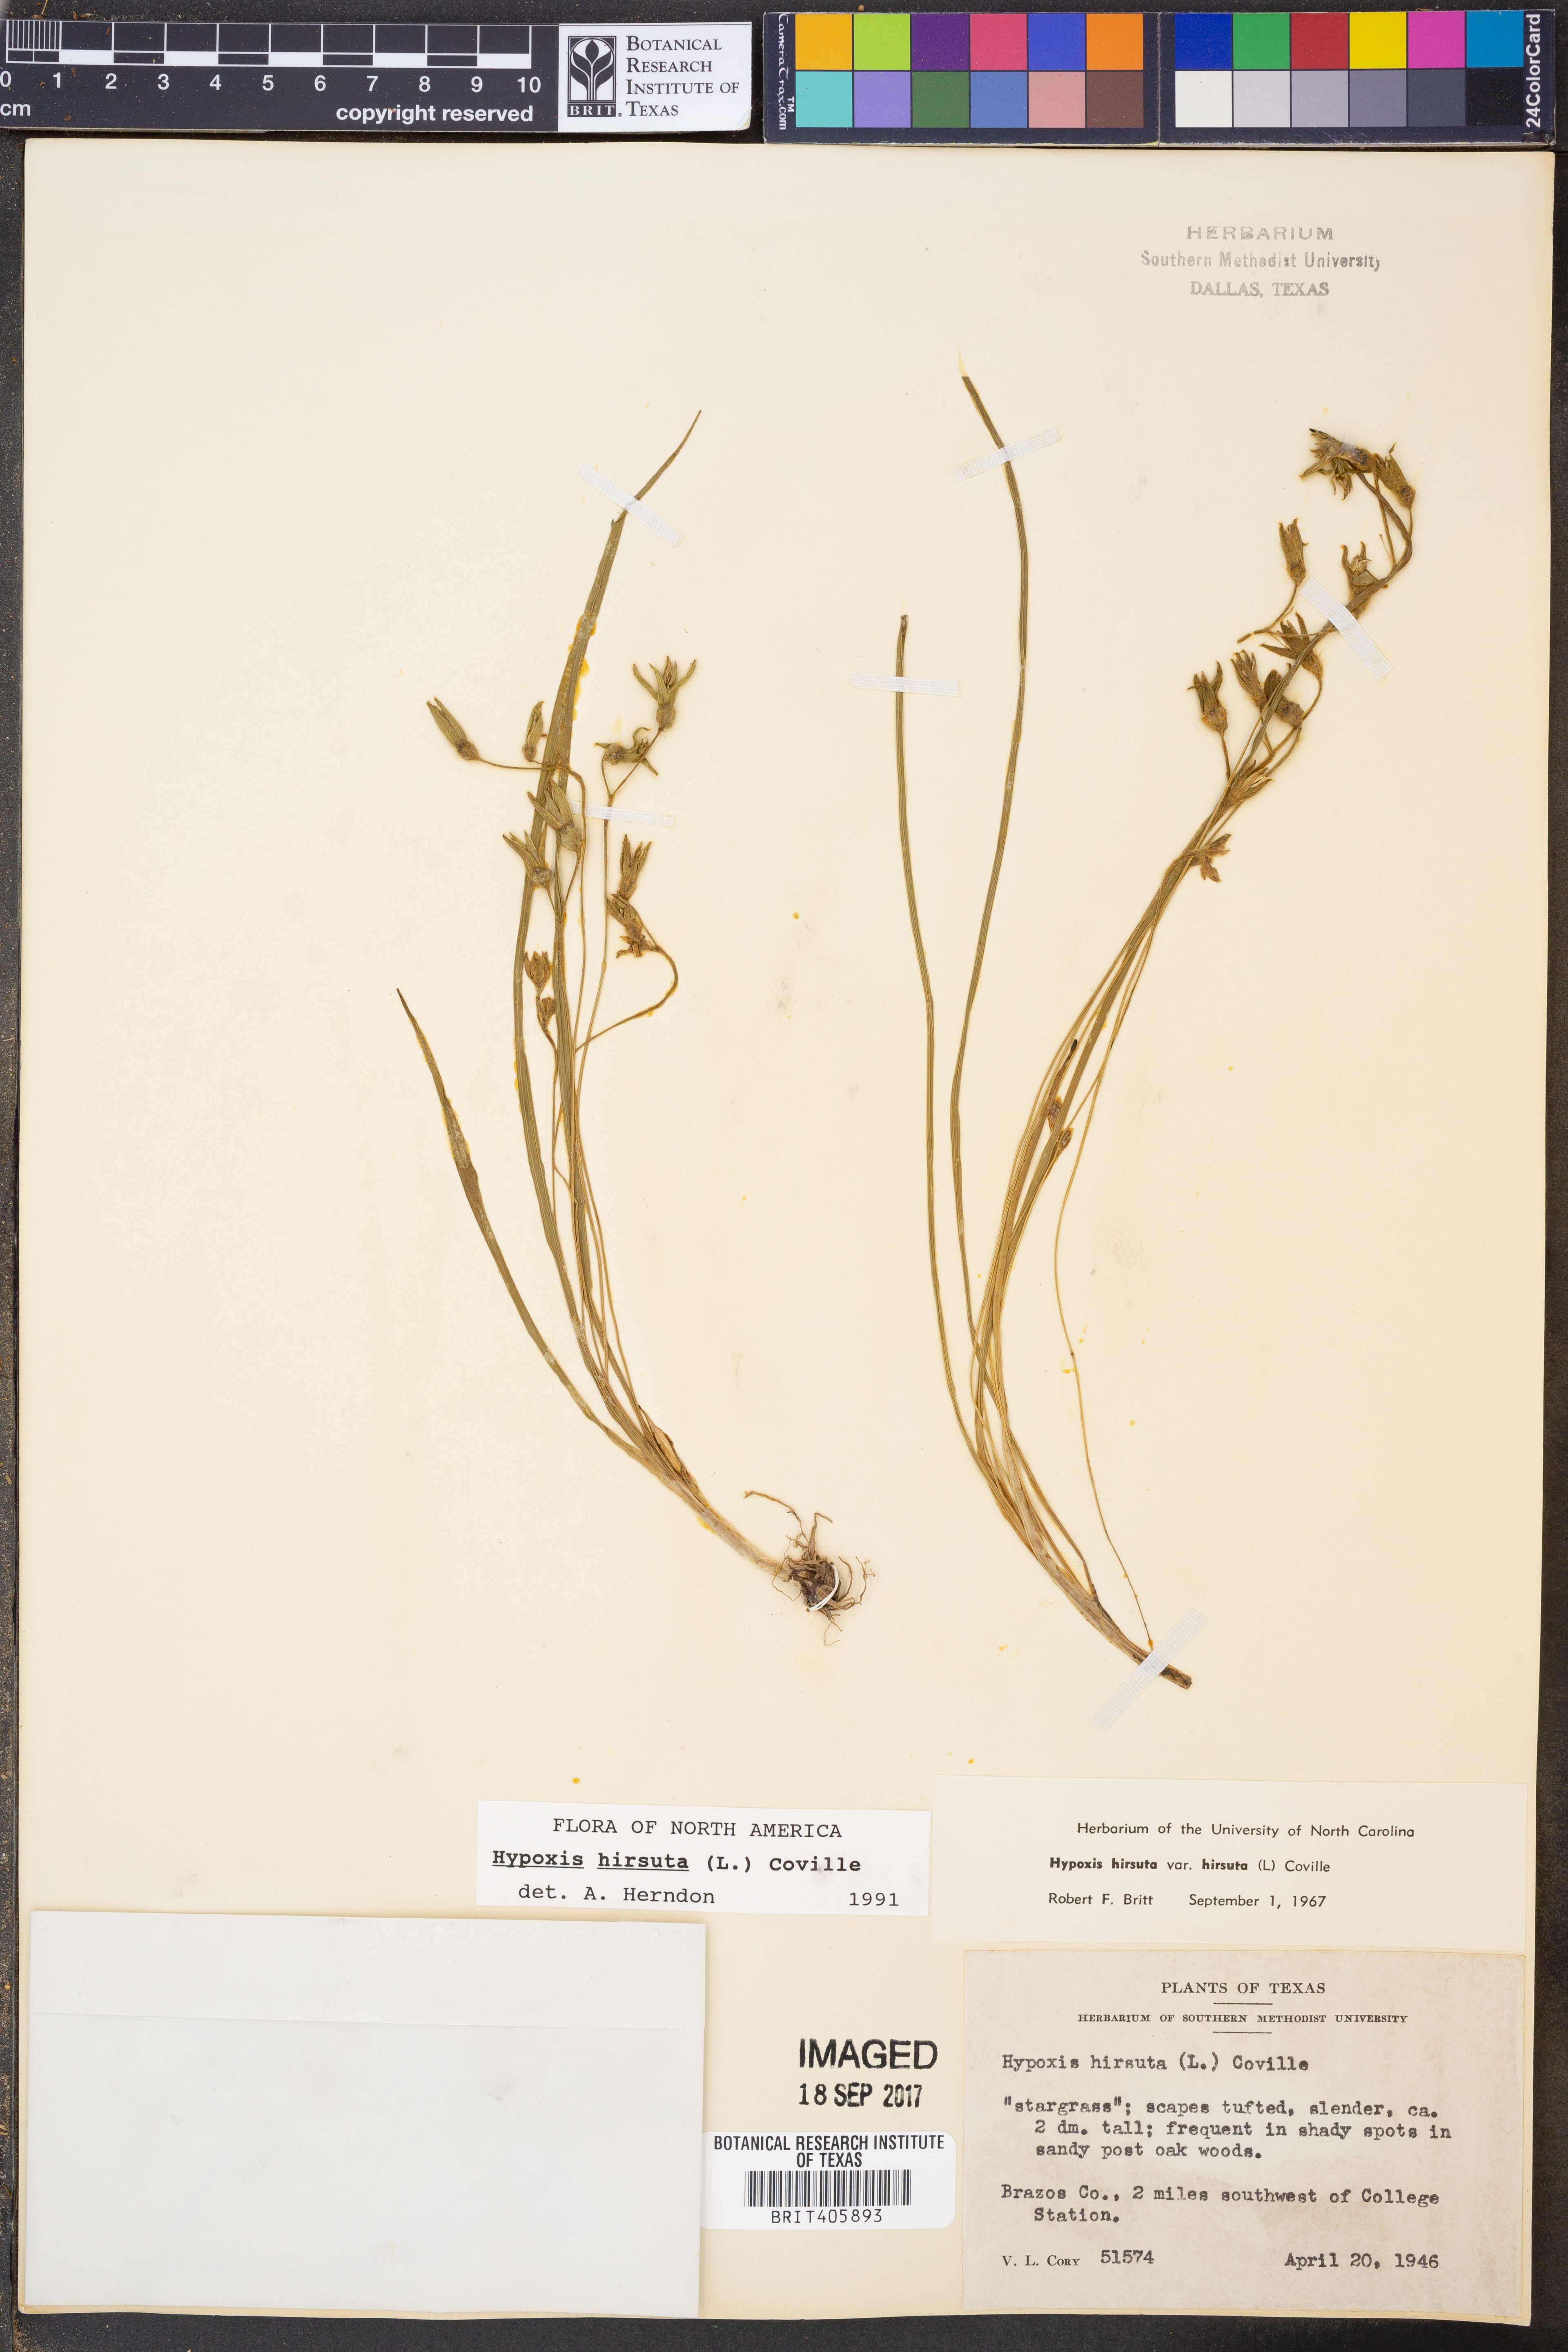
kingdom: Plantae
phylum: Tracheophyta
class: Liliopsida
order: Asparagales
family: Hypoxidaceae
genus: Hypoxis
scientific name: Hypoxis hirsuta
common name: Common goldstar
